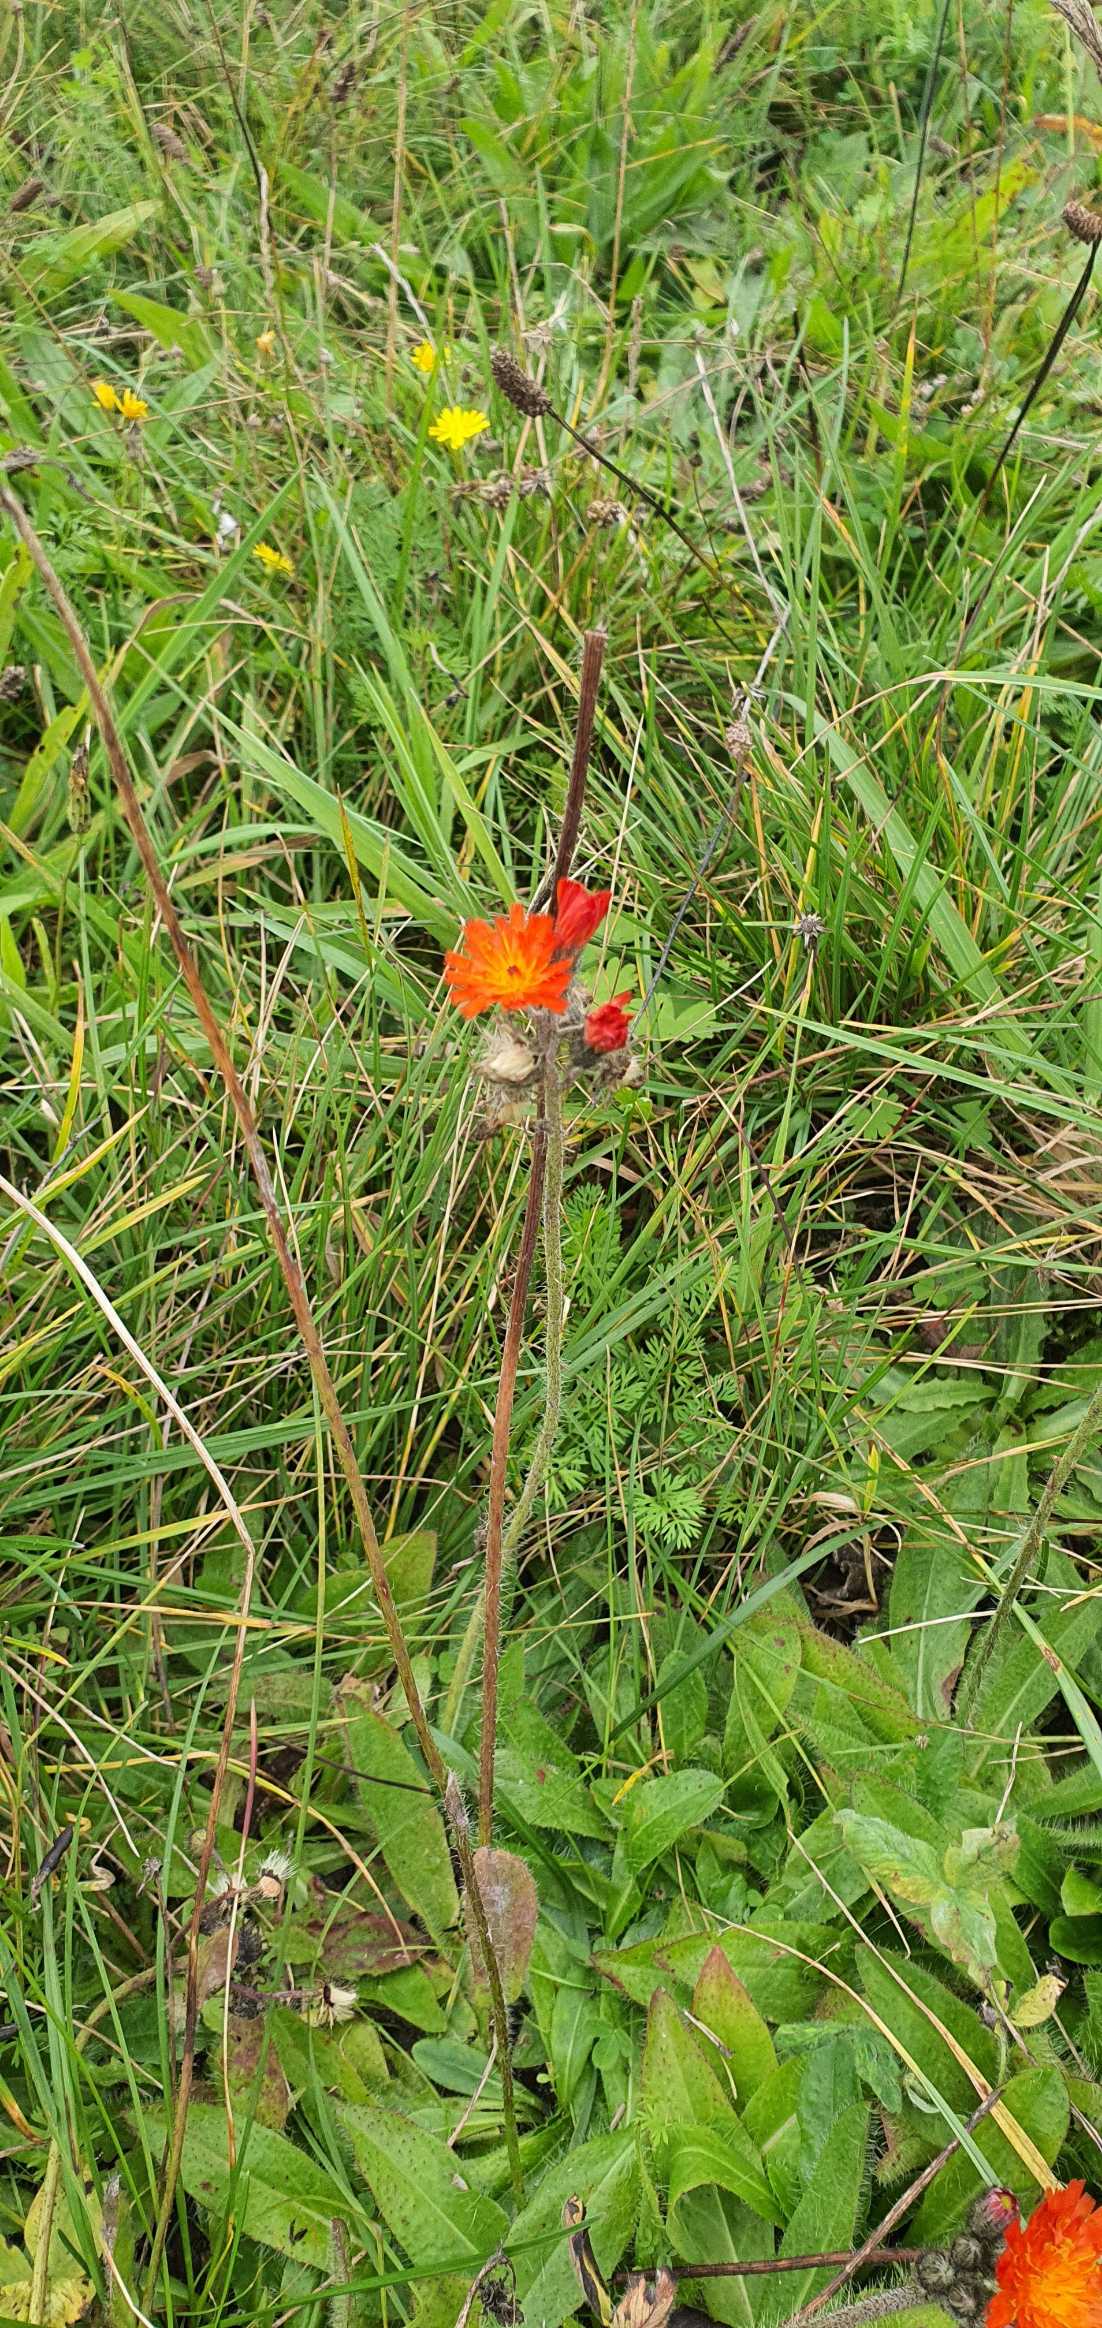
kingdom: Plantae
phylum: Tracheophyta
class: Magnoliopsida
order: Asterales
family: Asteraceae
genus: Pilosella
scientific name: Pilosella aurantiaca
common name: Pomerans-høgeurt
